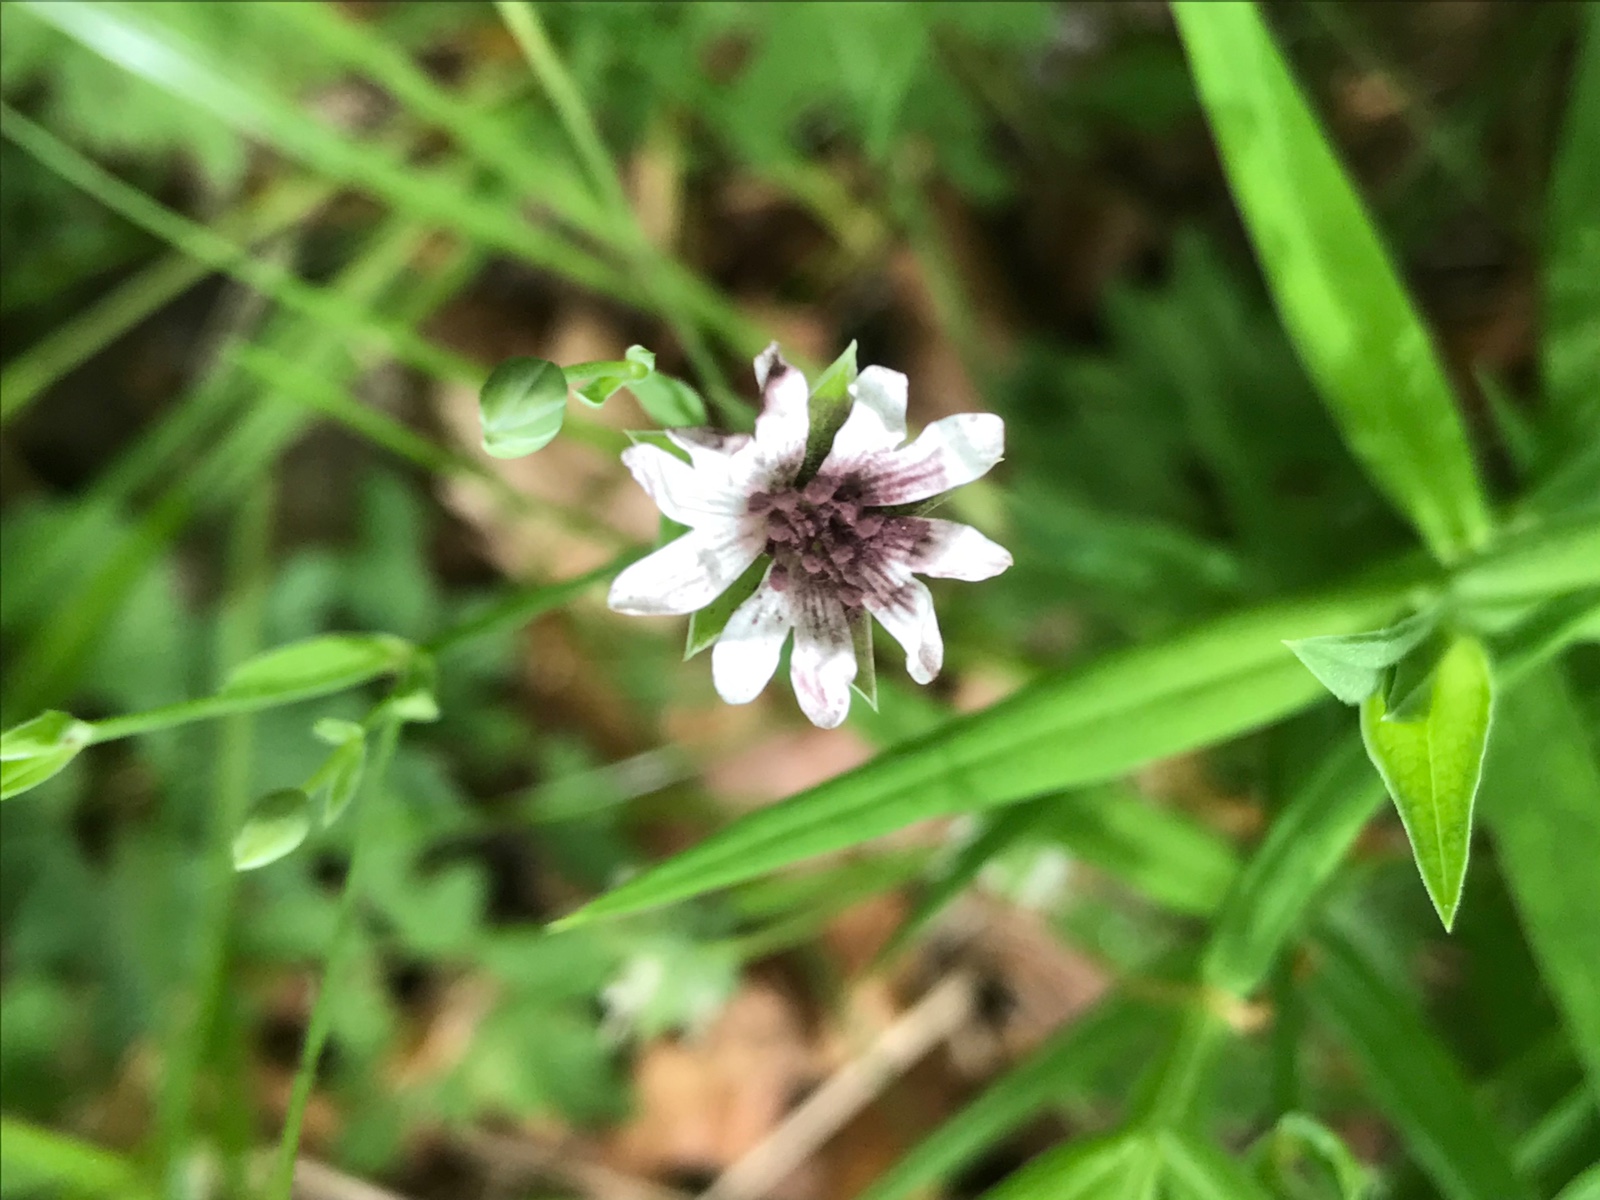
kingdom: Fungi
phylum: Basidiomycota
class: Microbotryomycetes
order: Microbotryales
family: Microbotryaceae
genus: Microbotryum
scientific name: Microbotryum stellariae
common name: fladstjerne-støvbladrust
